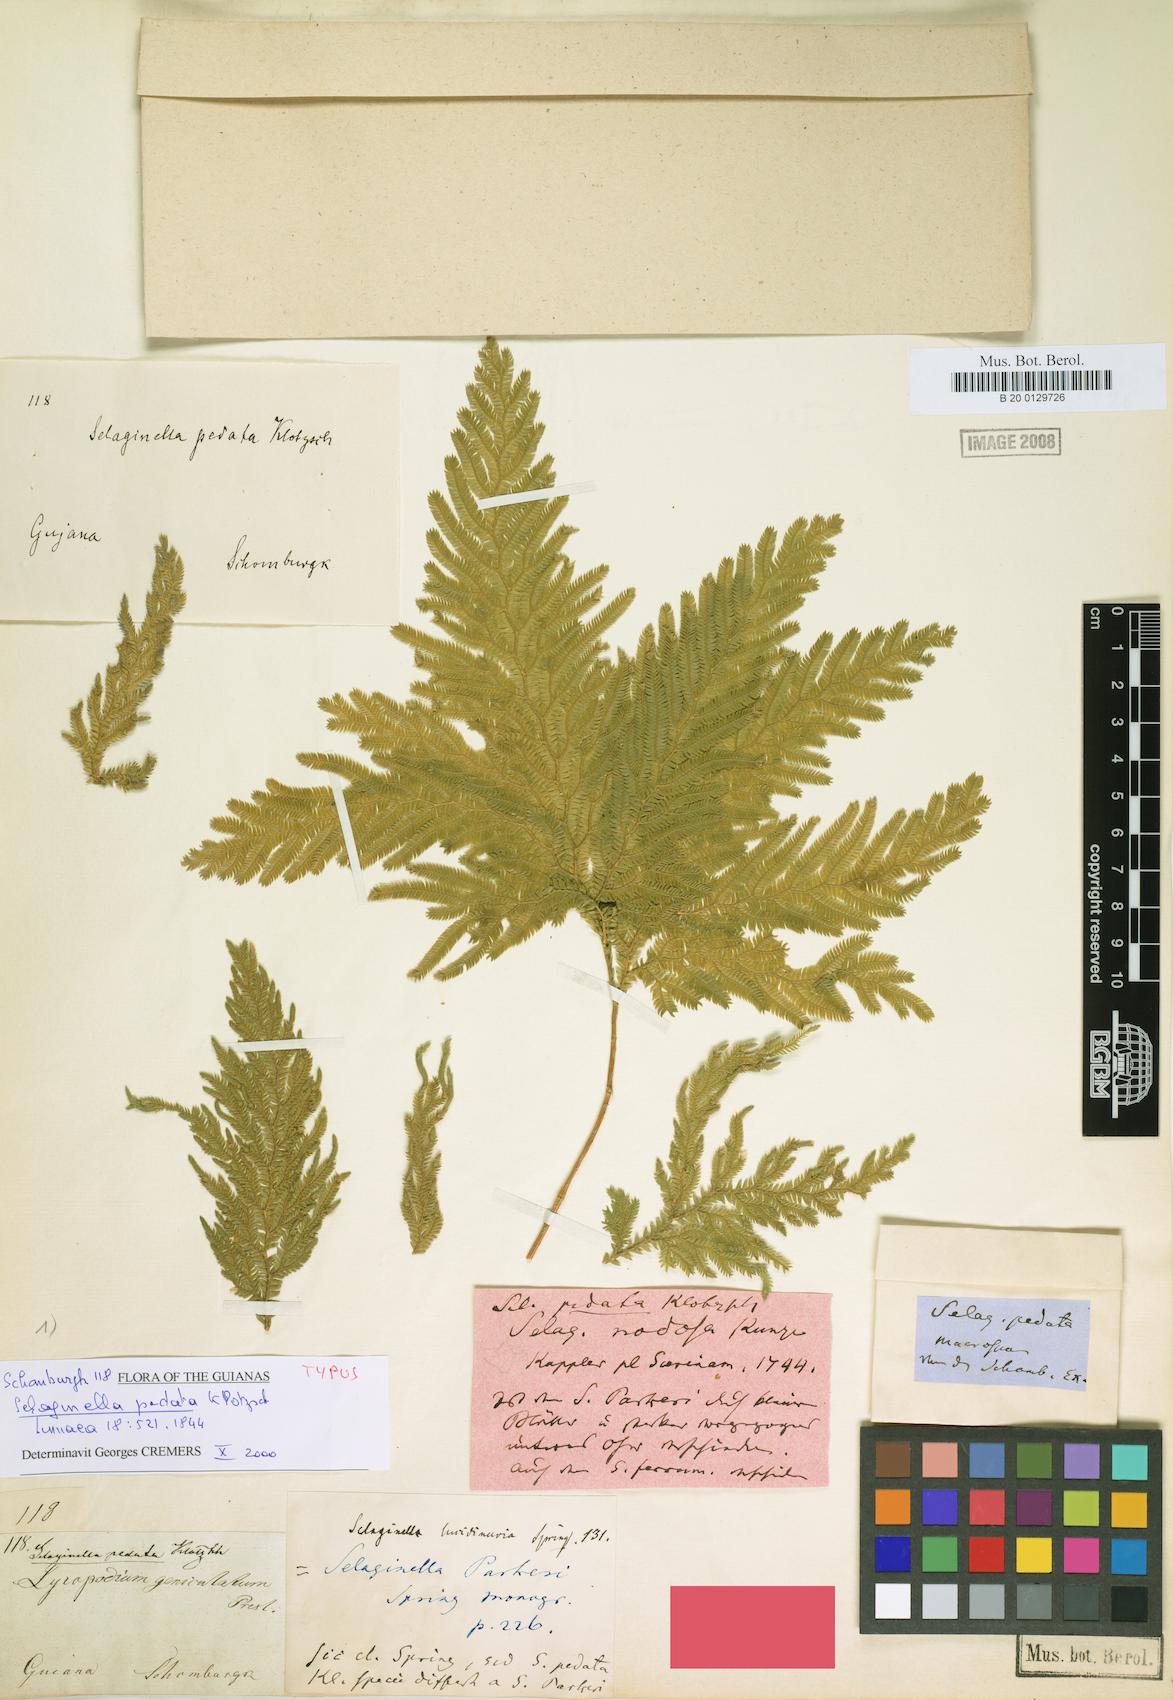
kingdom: Plantae
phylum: Tracheophyta
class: Lycopodiopsida
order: Selaginellales
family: Selaginellaceae
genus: Selaginella
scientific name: Selaginella parkeri
